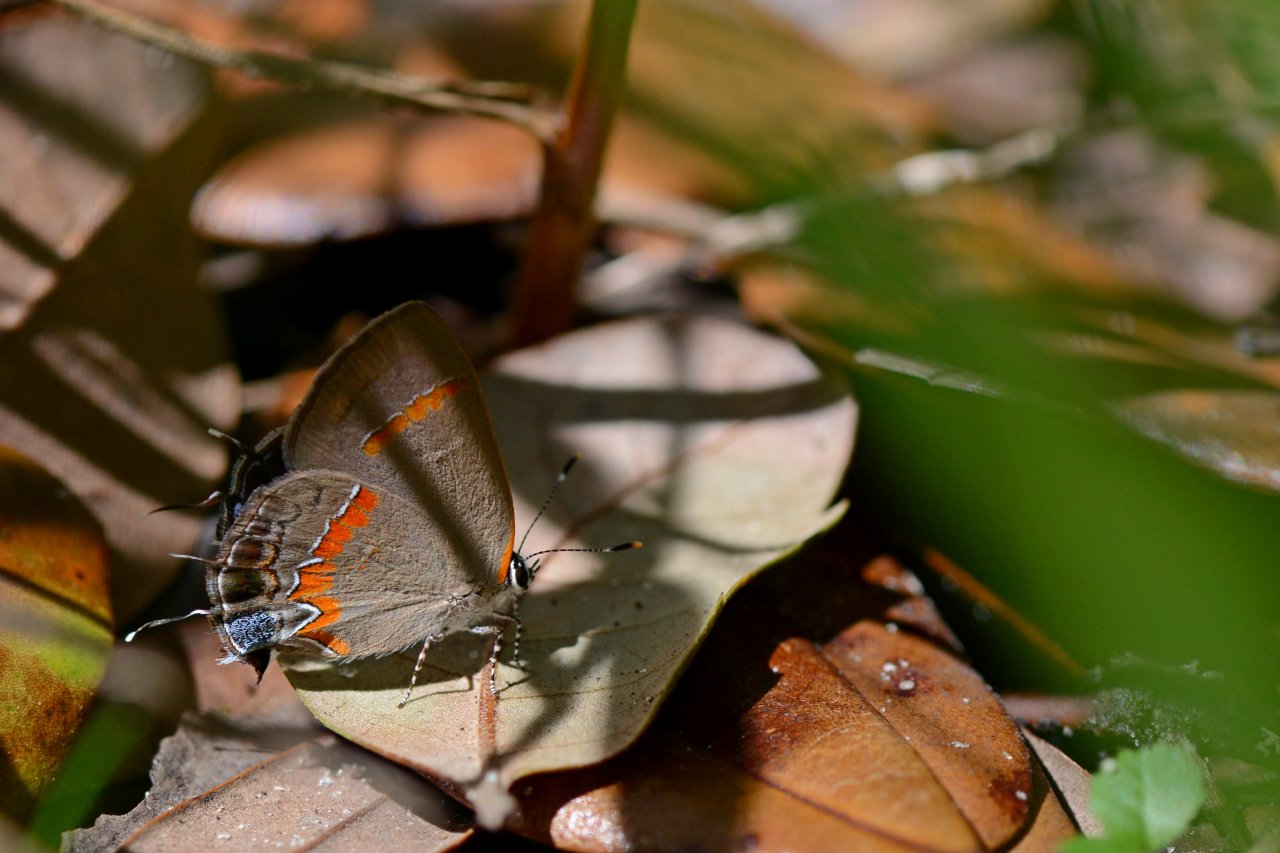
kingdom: Animalia
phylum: Arthropoda
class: Insecta
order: Lepidoptera
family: Lycaenidae
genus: Calycopis
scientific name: Calycopis cecrops
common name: Red-banded Hairstreak
